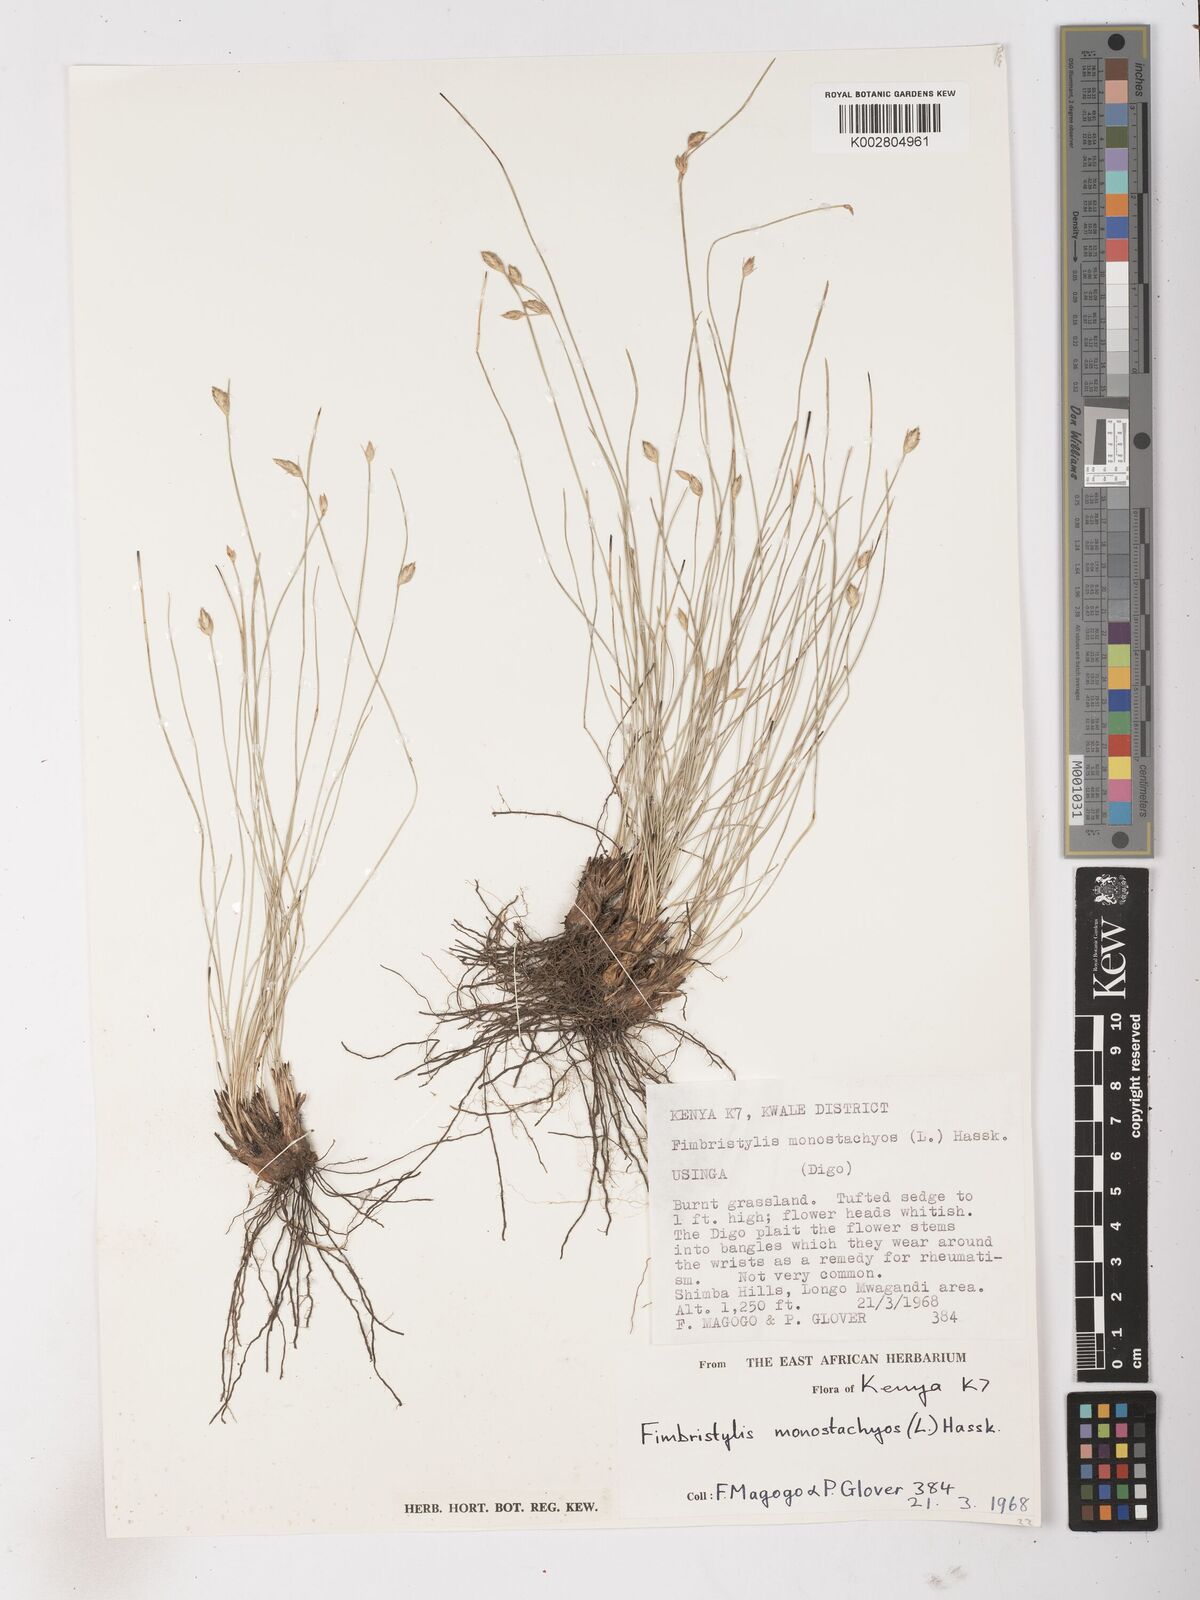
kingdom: Plantae
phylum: Tracheophyta
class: Liliopsida
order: Poales
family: Cyperaceae
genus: Abildgaardia
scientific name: Abildgaardia ovata
